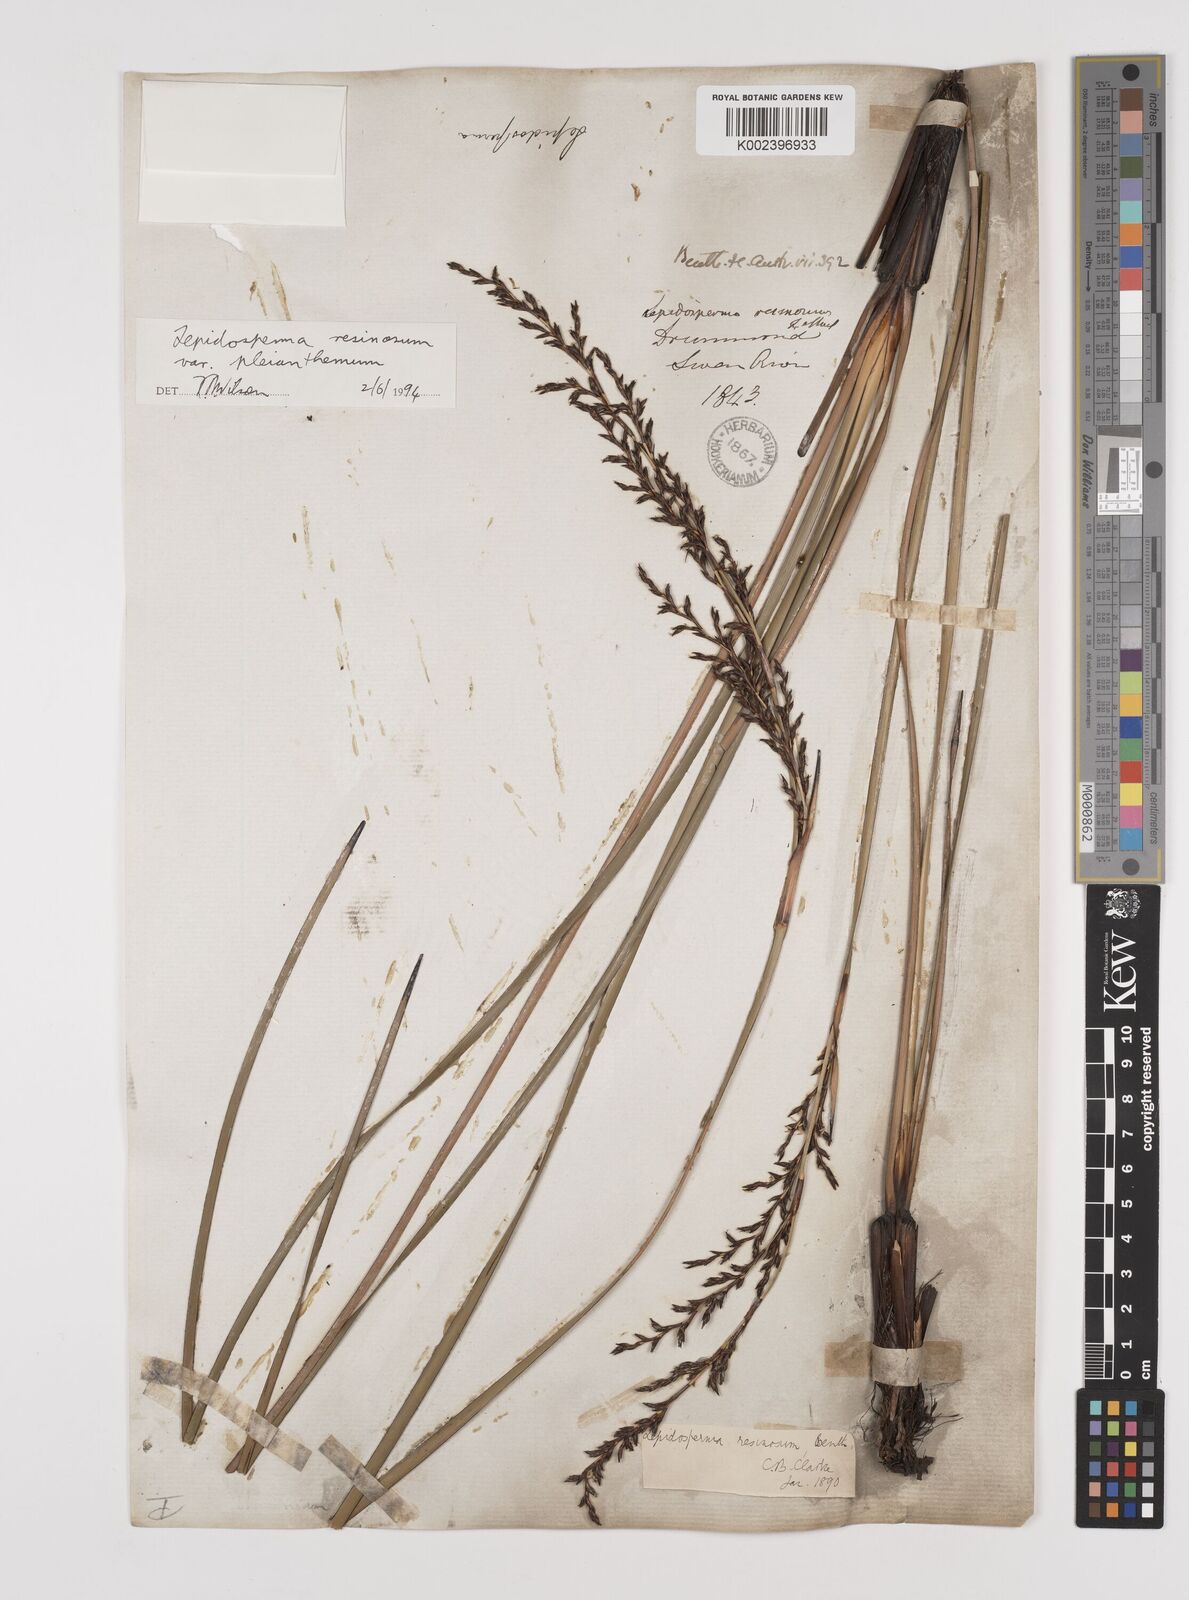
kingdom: Plantae
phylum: Tracheophyta
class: Liliopsida
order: Poales
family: Cyperaceae
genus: Lepidosperma
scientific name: Lepidosperma resinosum
